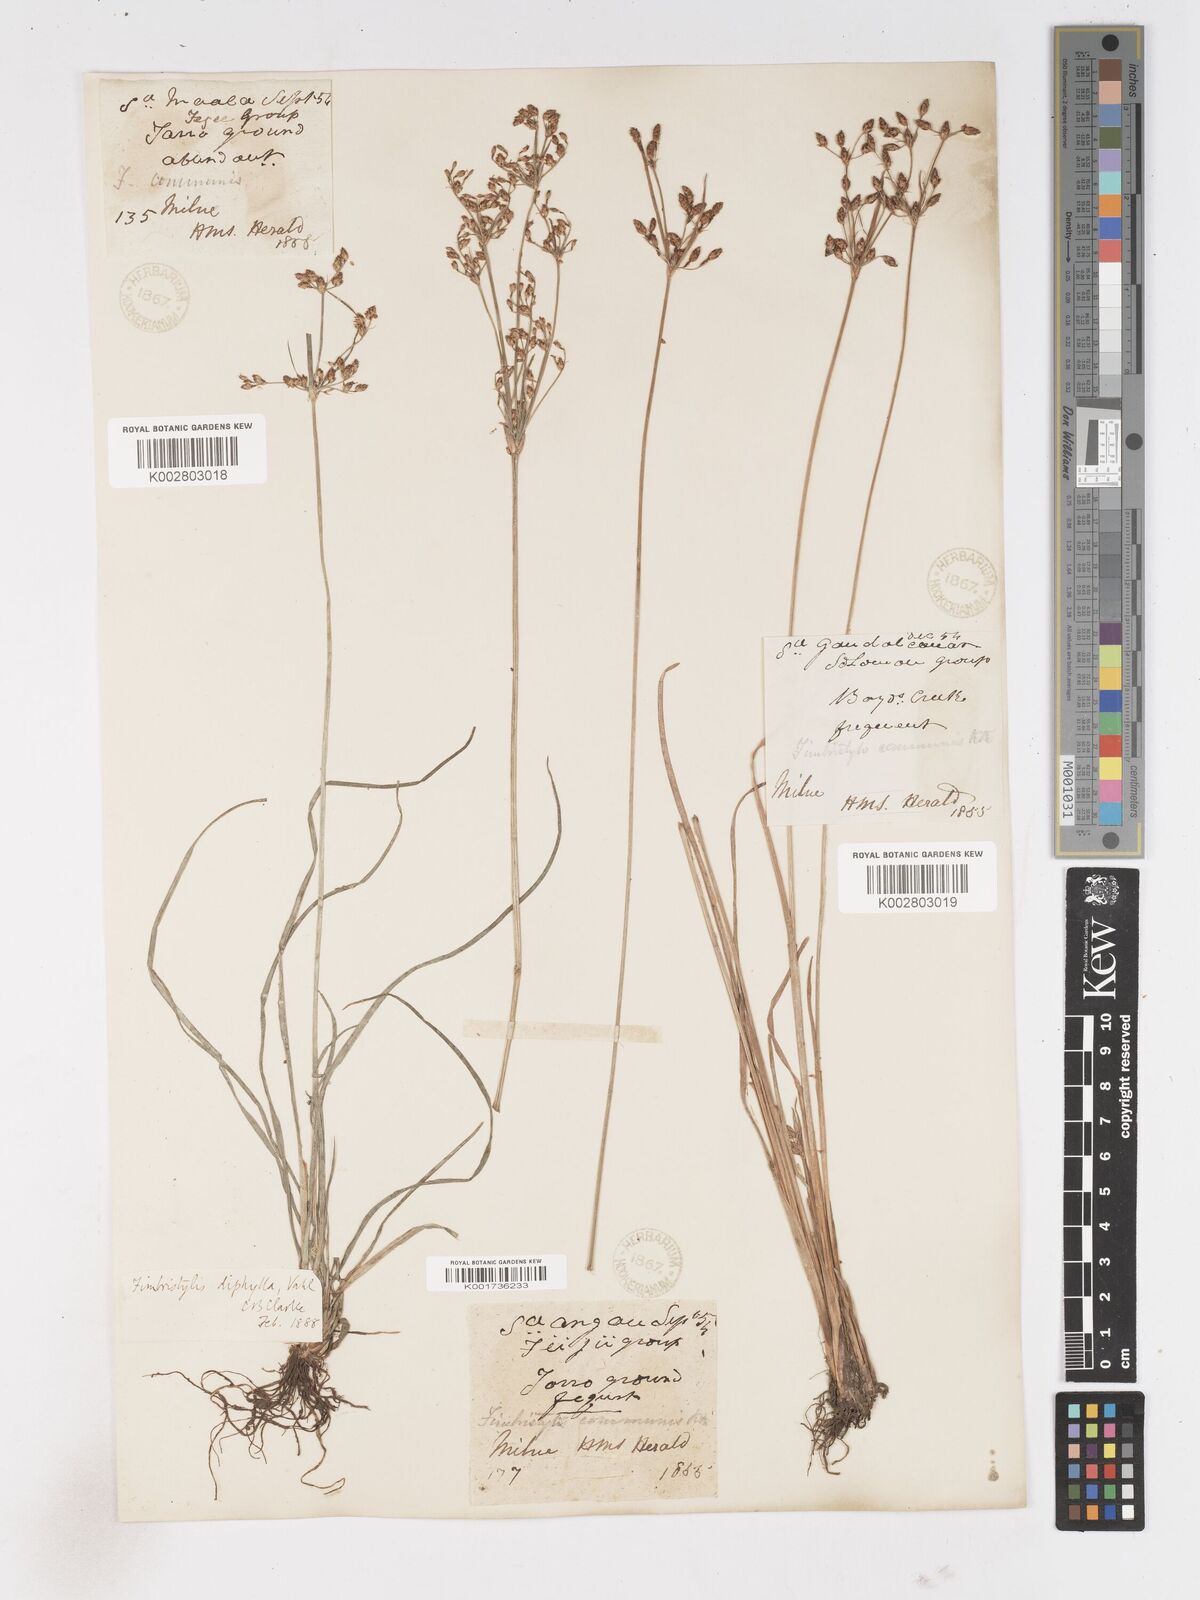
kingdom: Plantae
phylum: Tracheophyta
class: Liliopsida
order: Poales
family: Cyperaceae
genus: Fimbristylis
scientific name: Fimbristylis dichotoma
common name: Forked fimbry
